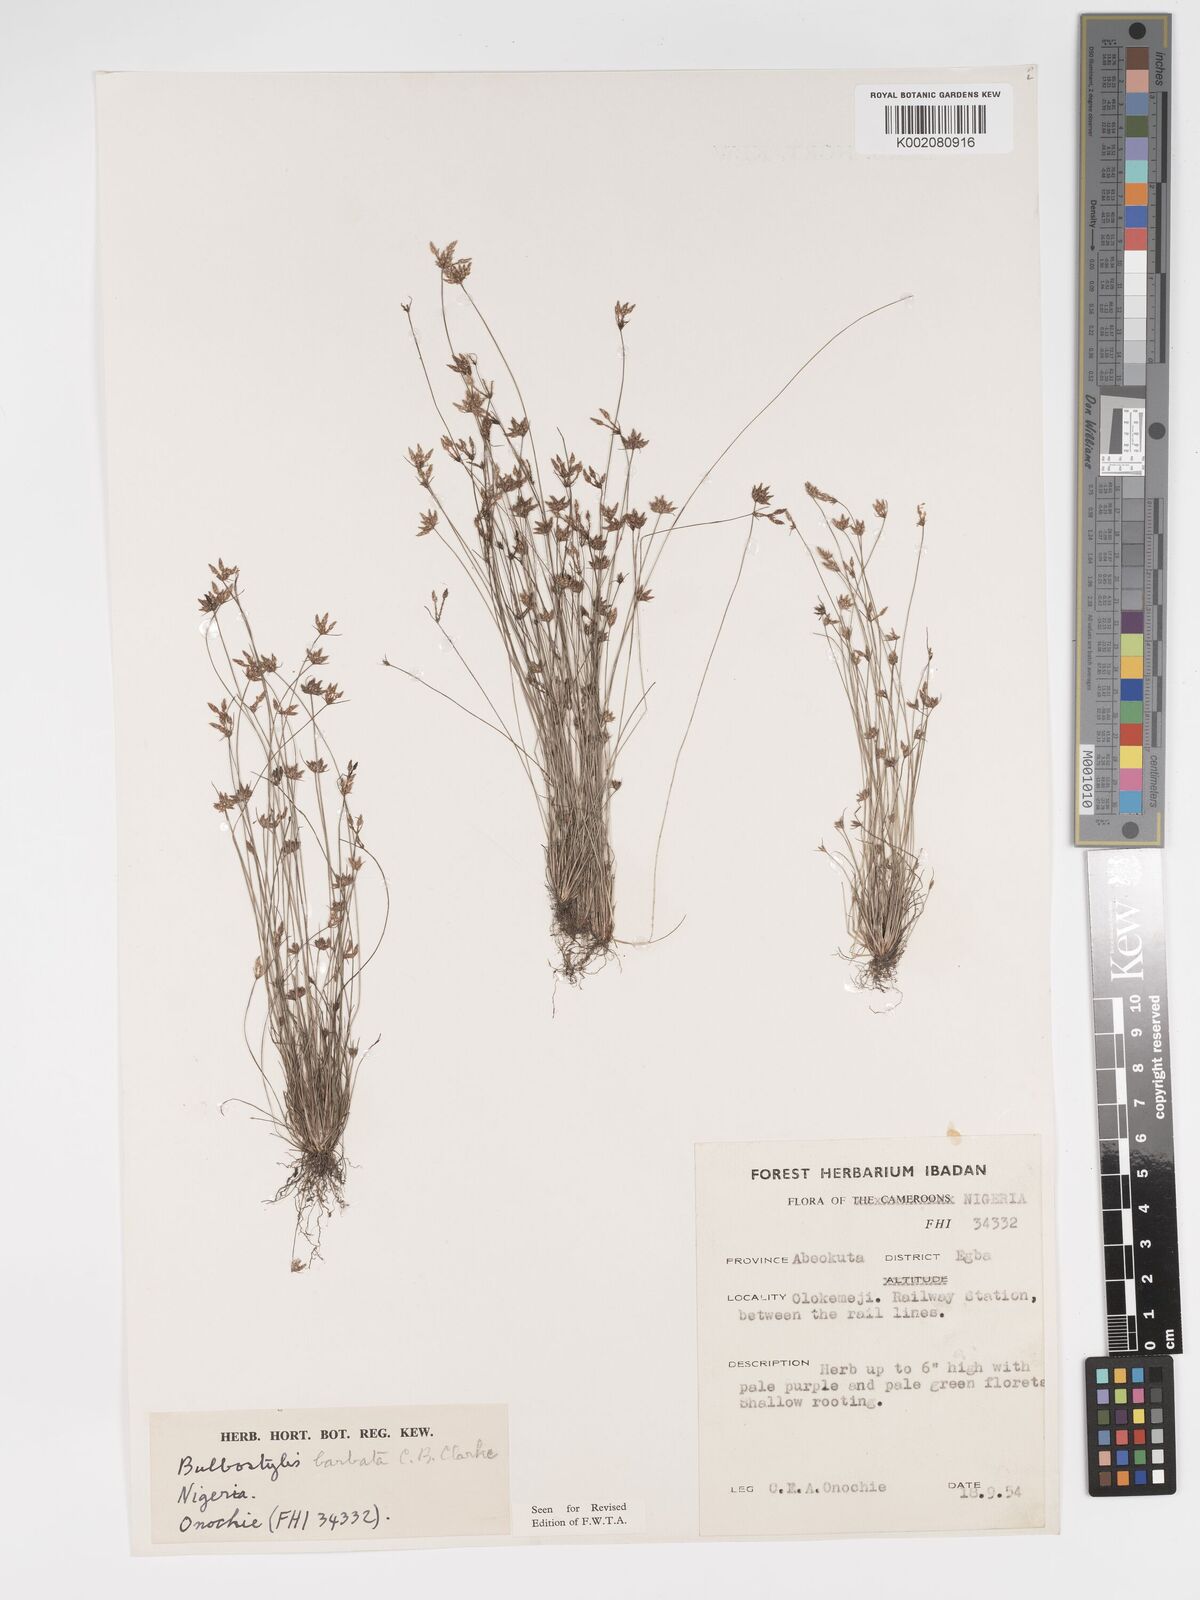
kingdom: Plantae
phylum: Tracheophyta
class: Liliopsida
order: Poales
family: Cyperaceae
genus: Bulbostylis
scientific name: Bulbostylis barbata
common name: Watergrass
